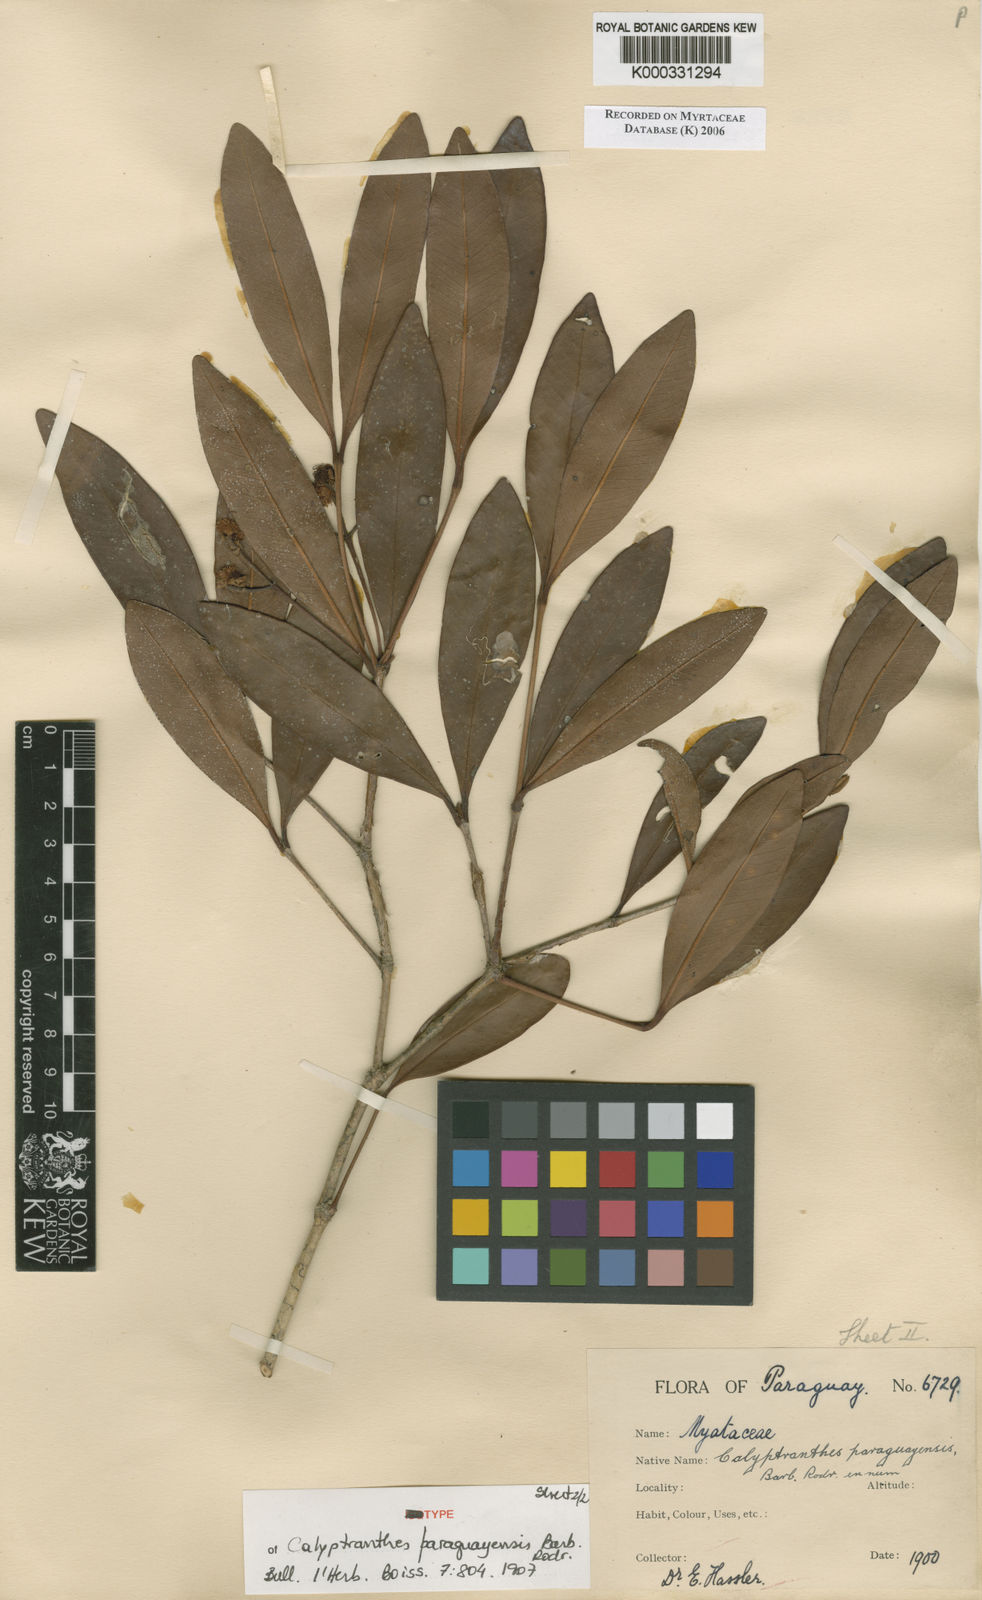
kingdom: Plantae
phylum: Tracheophyta
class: Magnoliopsida
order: Myrtales
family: Myrtaceae
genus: Calyptranthes
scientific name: Calyptranthes
